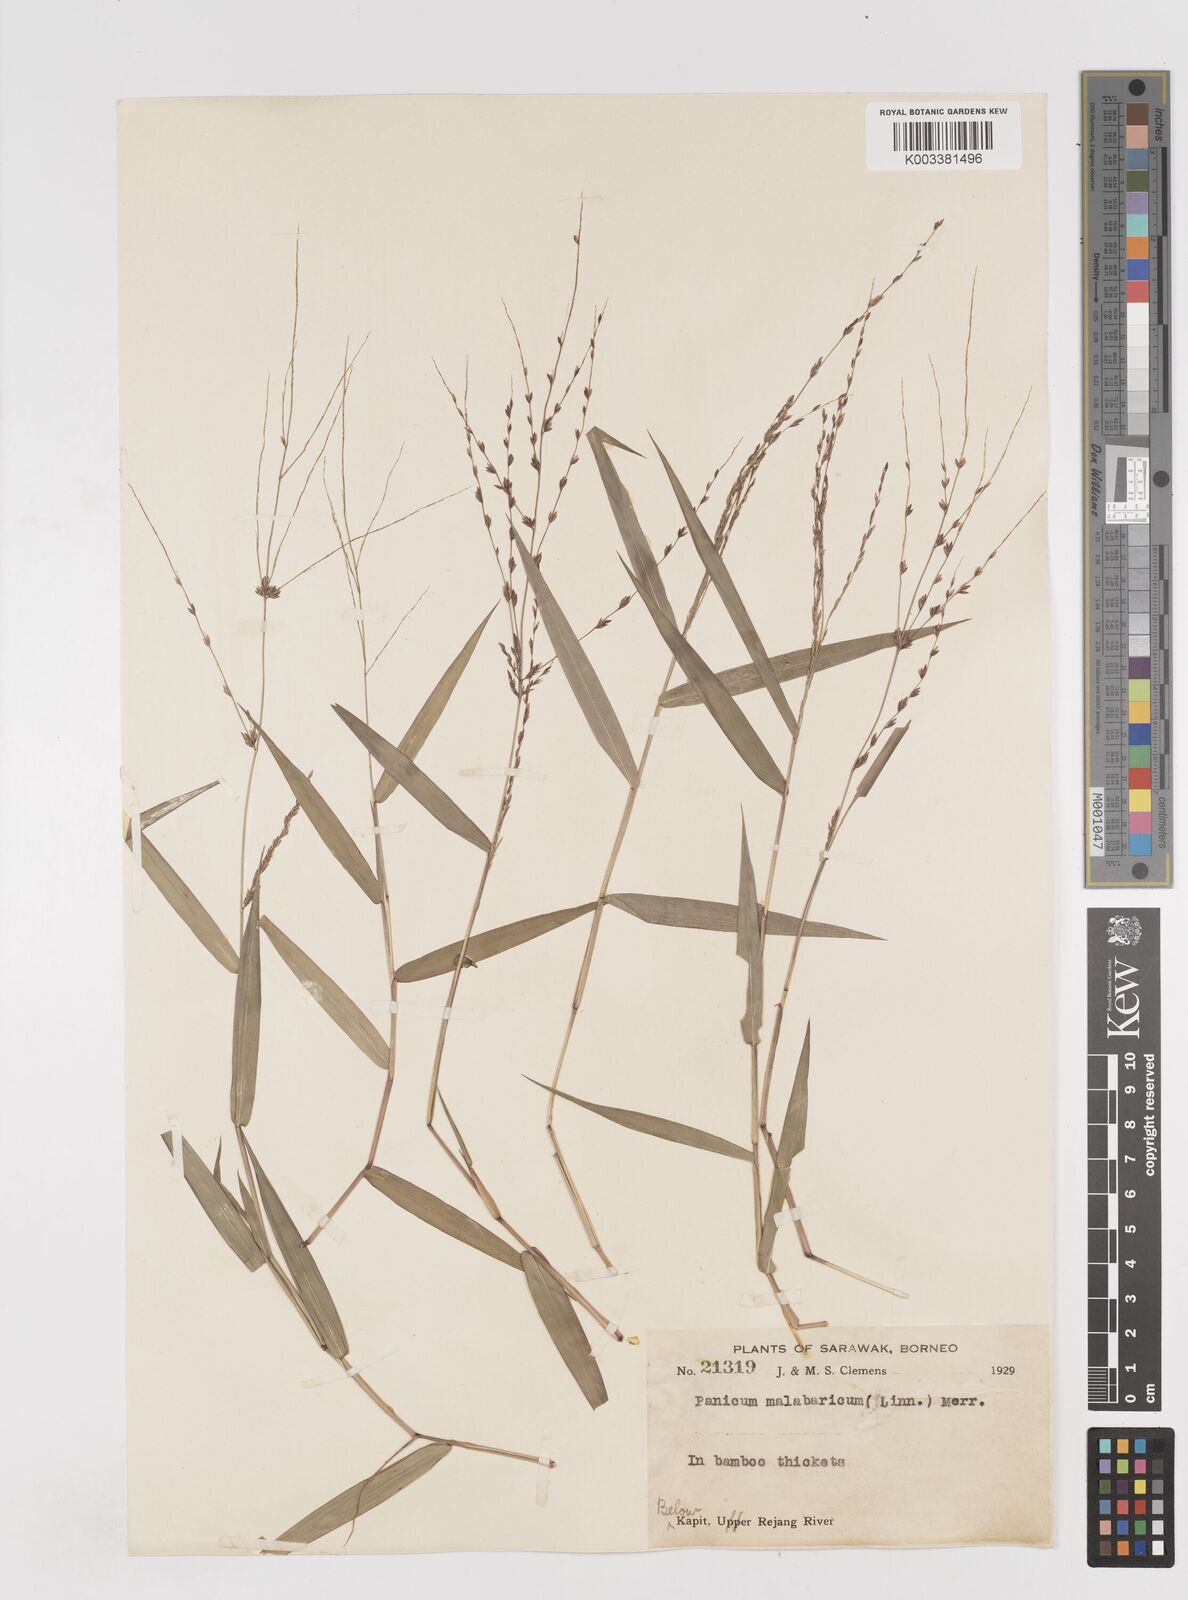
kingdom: Plantae
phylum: Tracheophyta
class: Liliopsida
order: Poales
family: Poaceae
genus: Ottochloa
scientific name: Ottochloa nodosa
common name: Slender-panic grass
